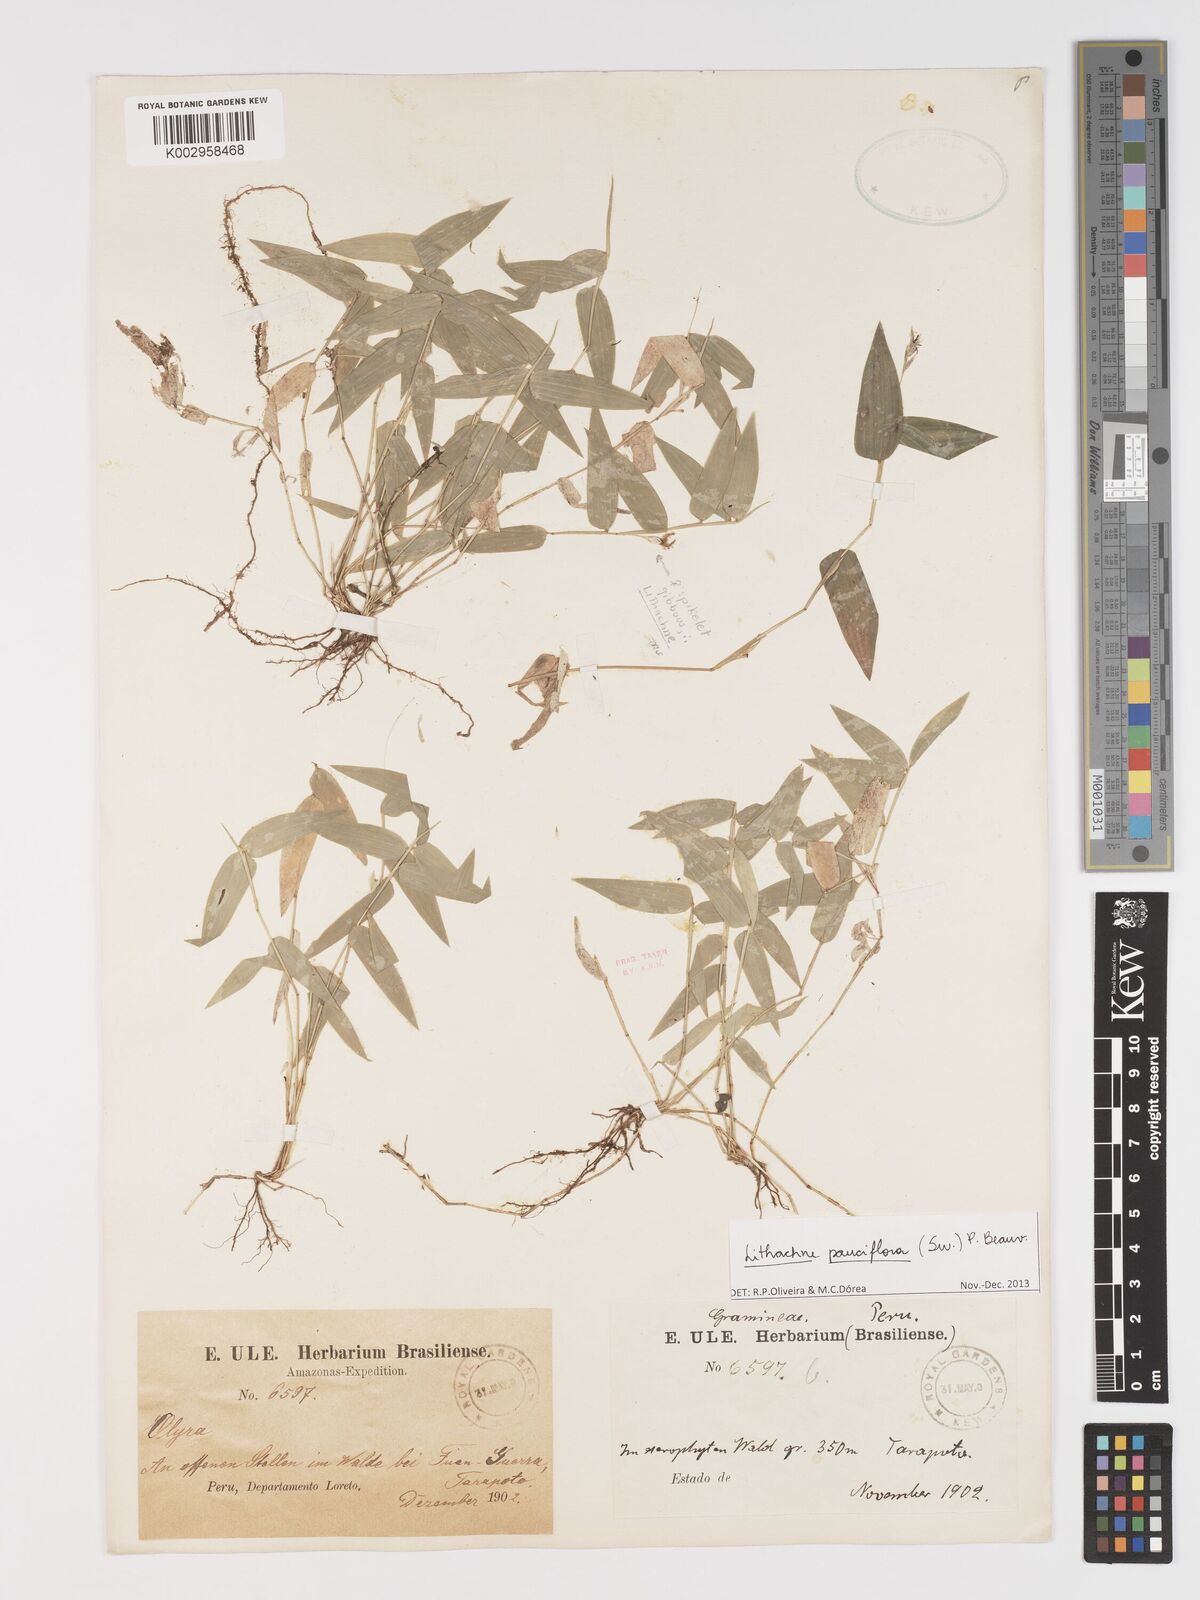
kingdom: Plantae
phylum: Tracheophyta
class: Liliopsida
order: Poales
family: Poaceae
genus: Lithachne
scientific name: Lithachne pauciflora
